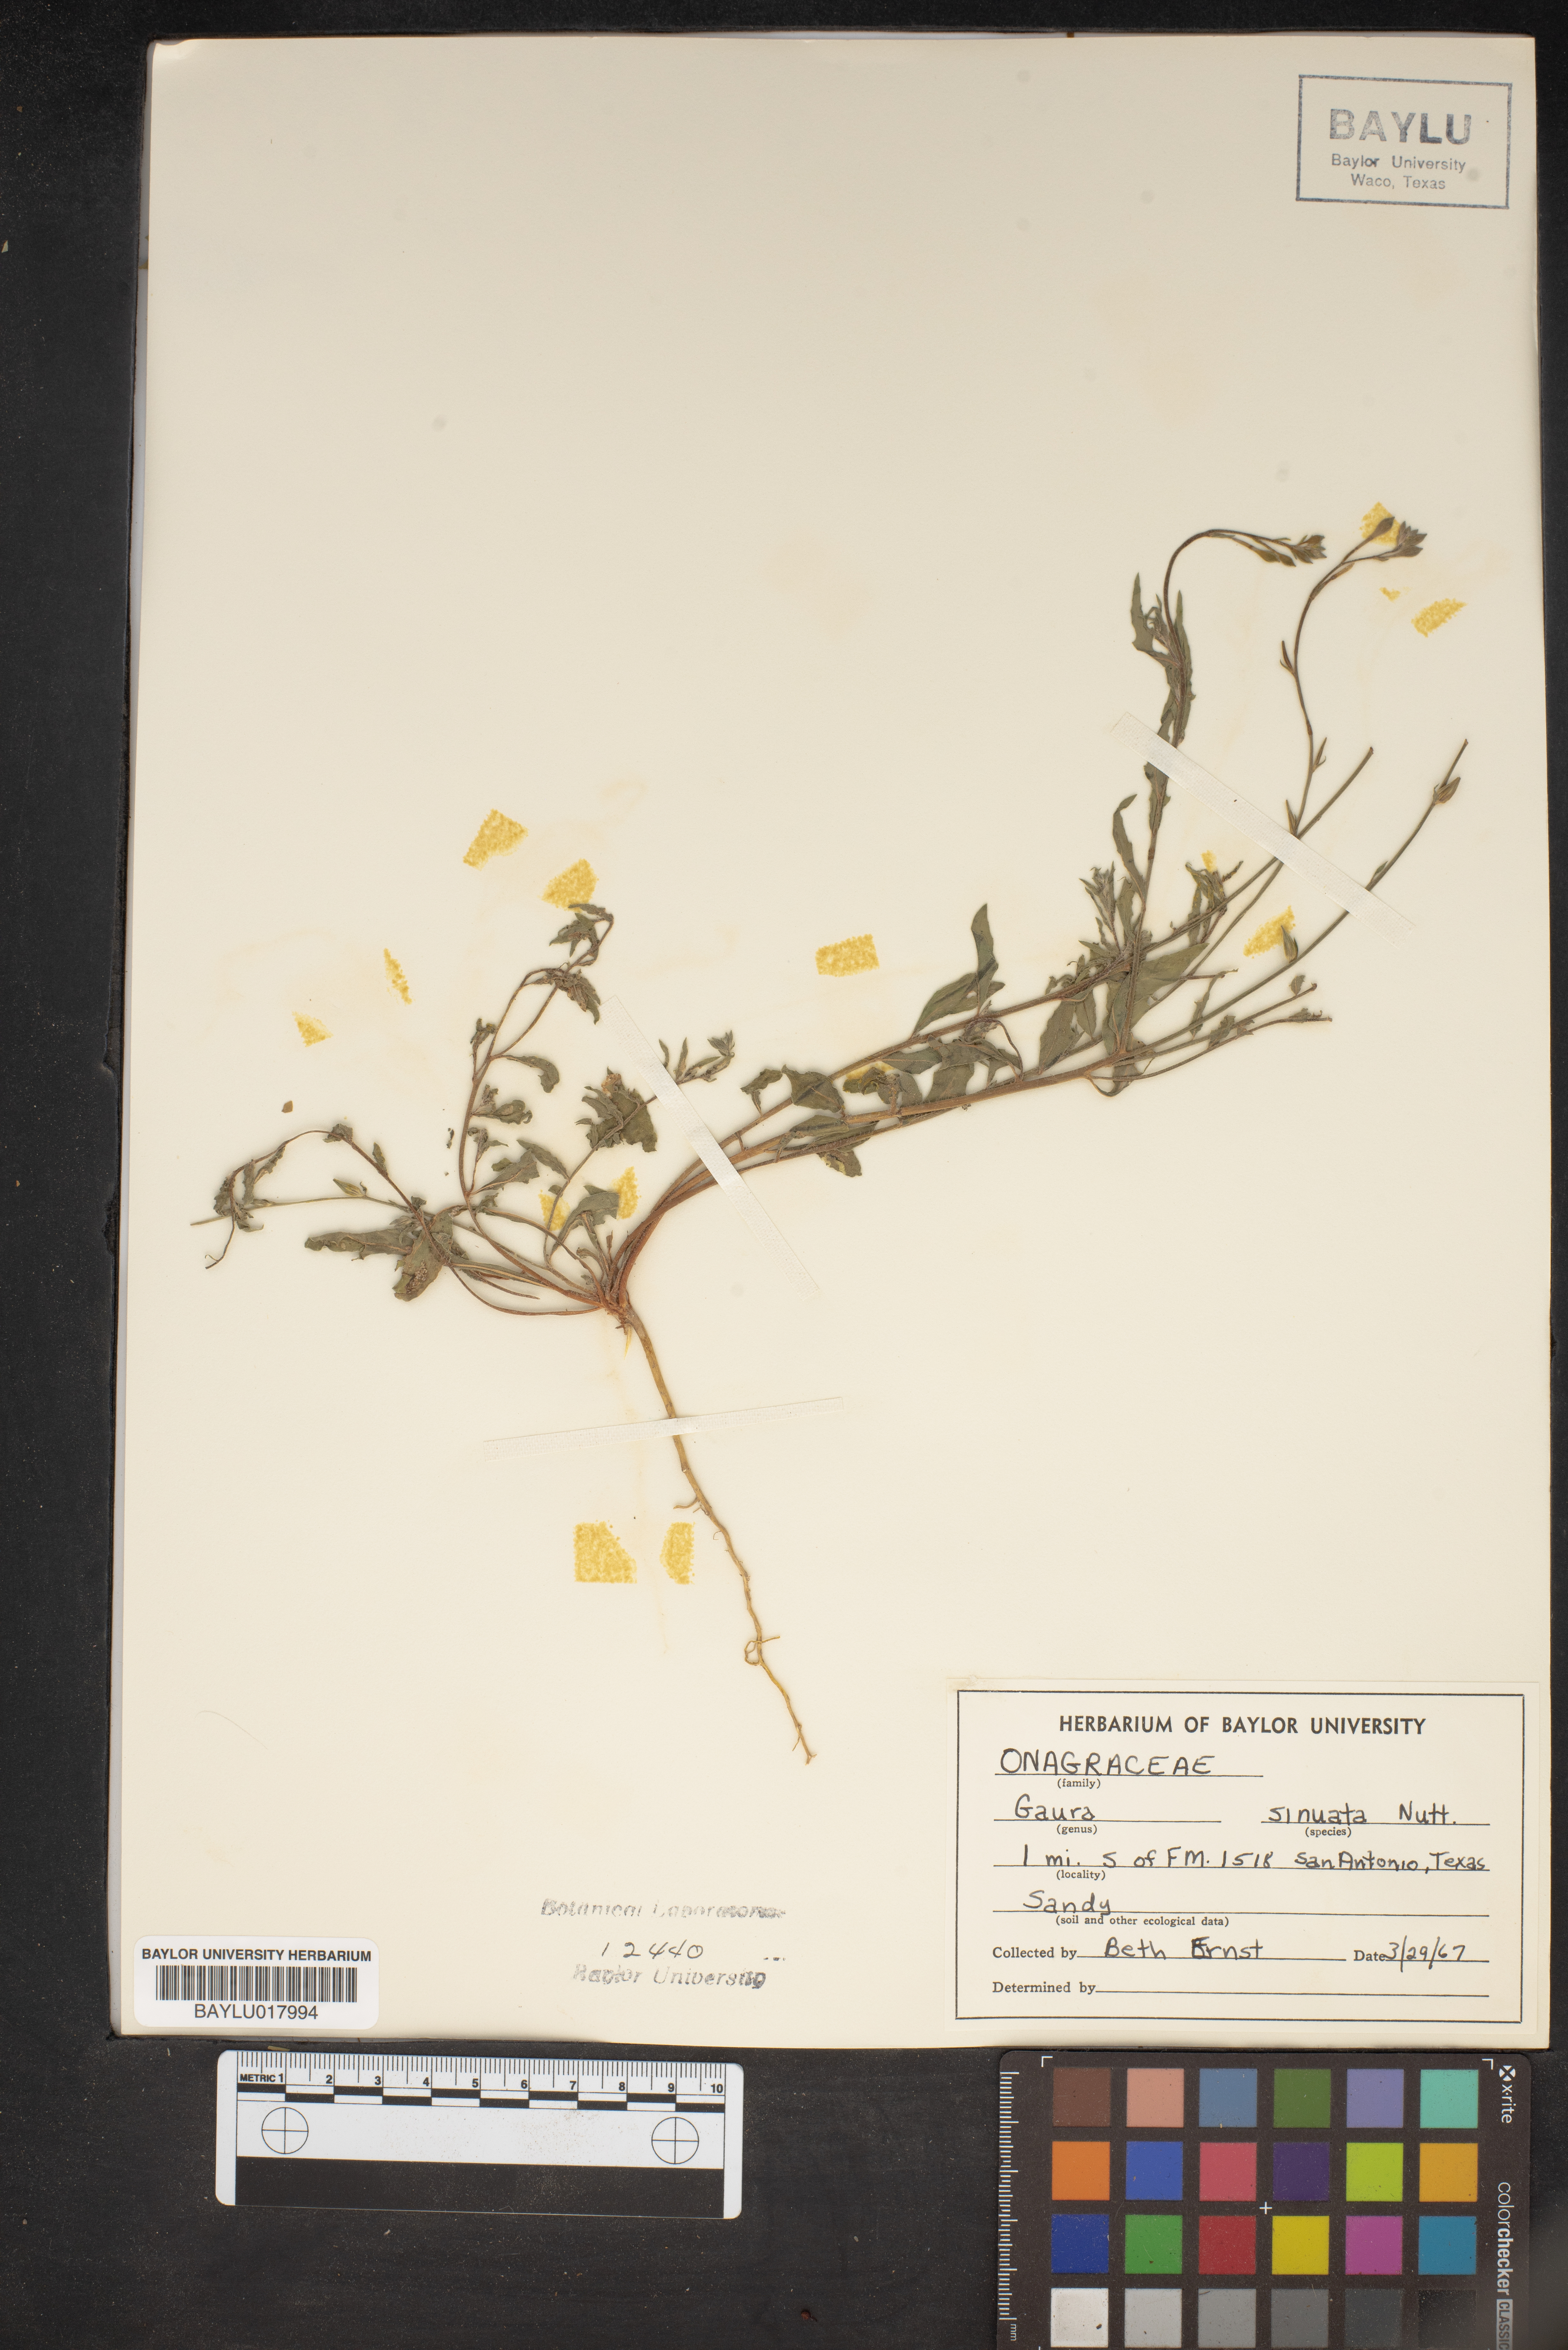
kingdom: Plantae
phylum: Tracheophyta
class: Magnoliopsida
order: Myrtales
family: Onagraceae
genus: Oenothera
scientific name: Oenothera sinuosa
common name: Wavyleaf beeblossom
